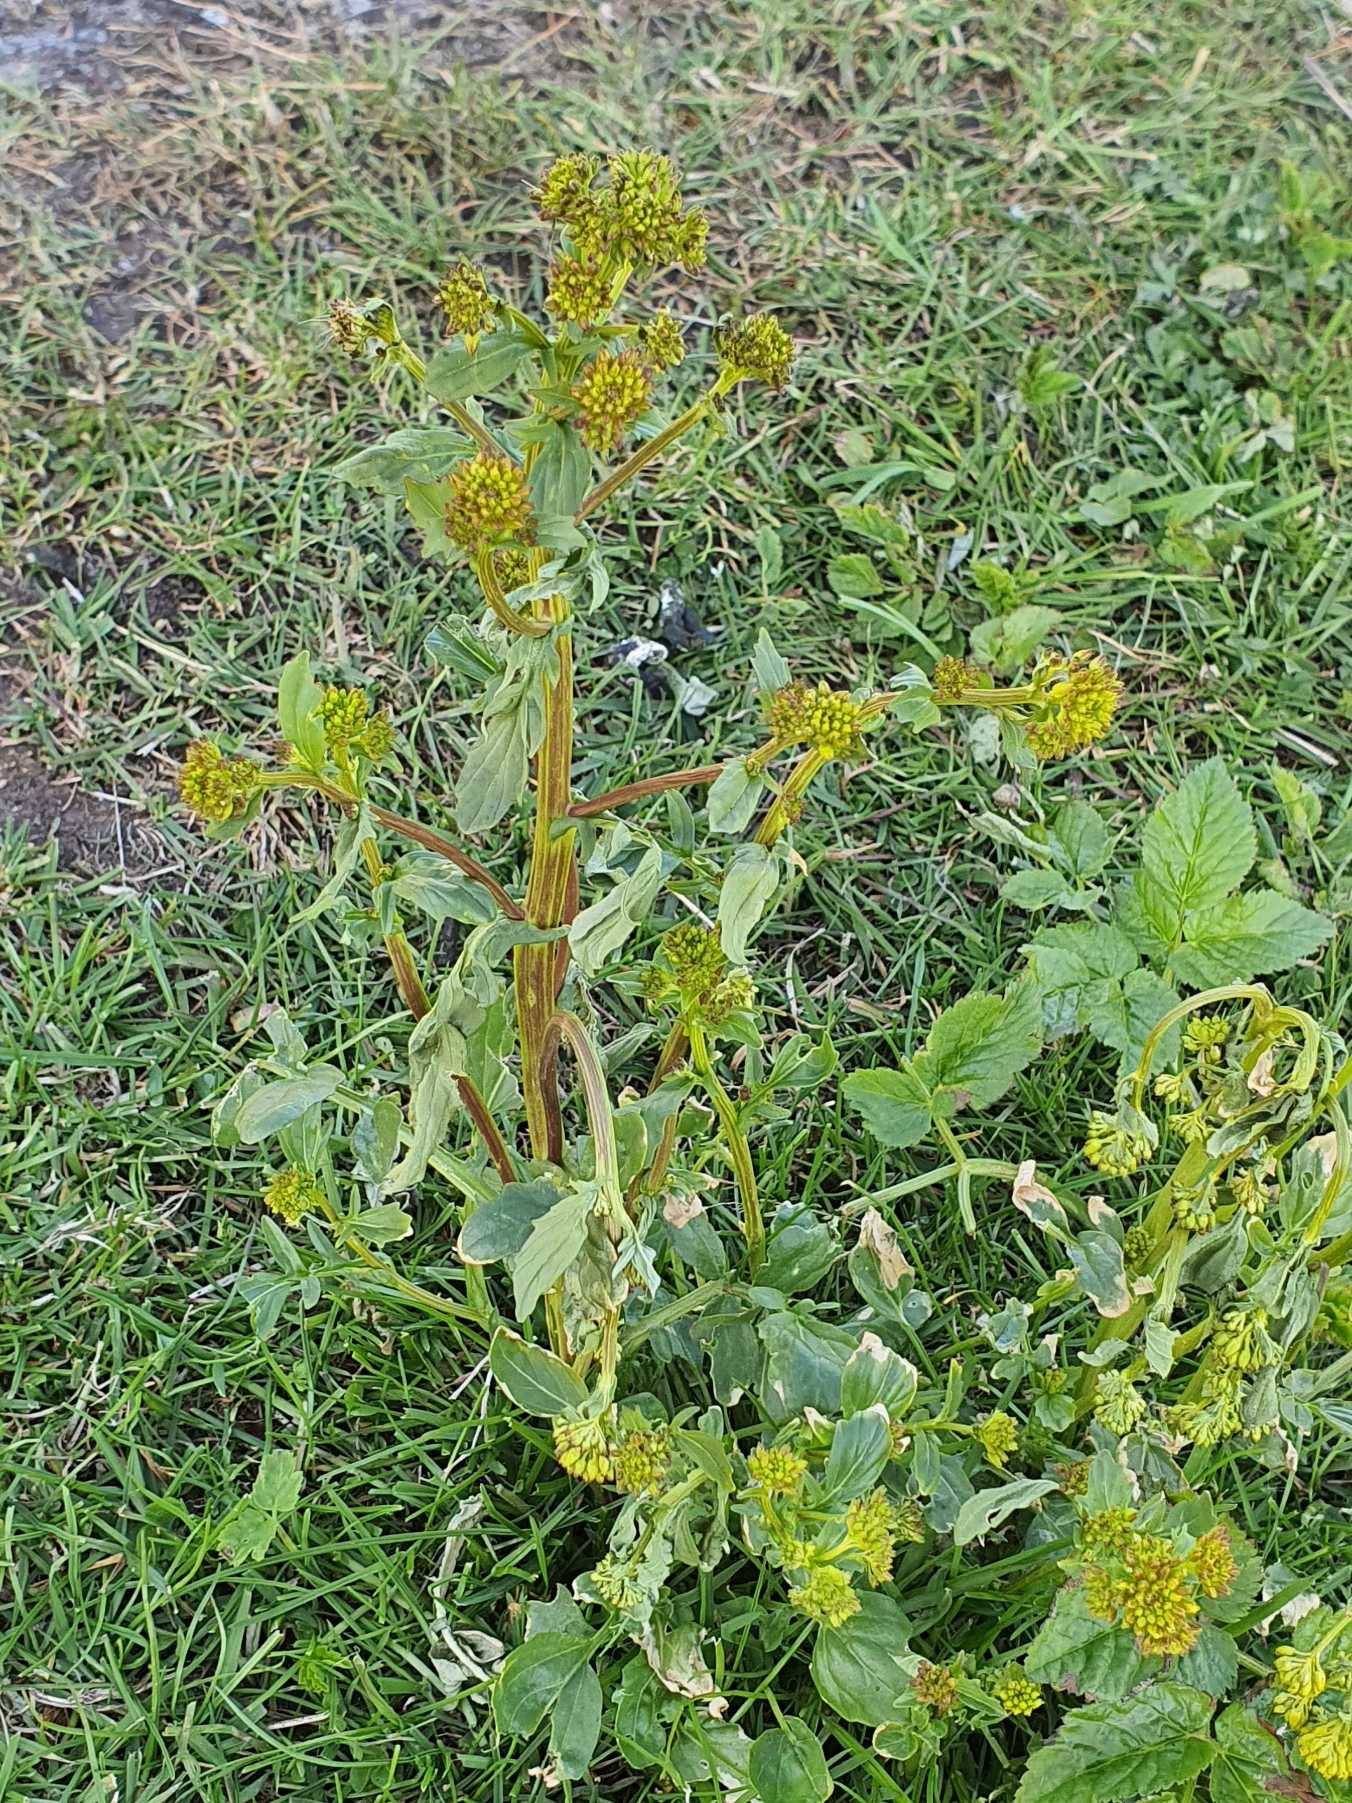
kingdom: Plantae
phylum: Tracheophyta
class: Magnoliopsida
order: Brassicales
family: Brassicaceae
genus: Barbarea
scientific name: Barbarea vulgaris
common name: Almindelig vinterkarse
